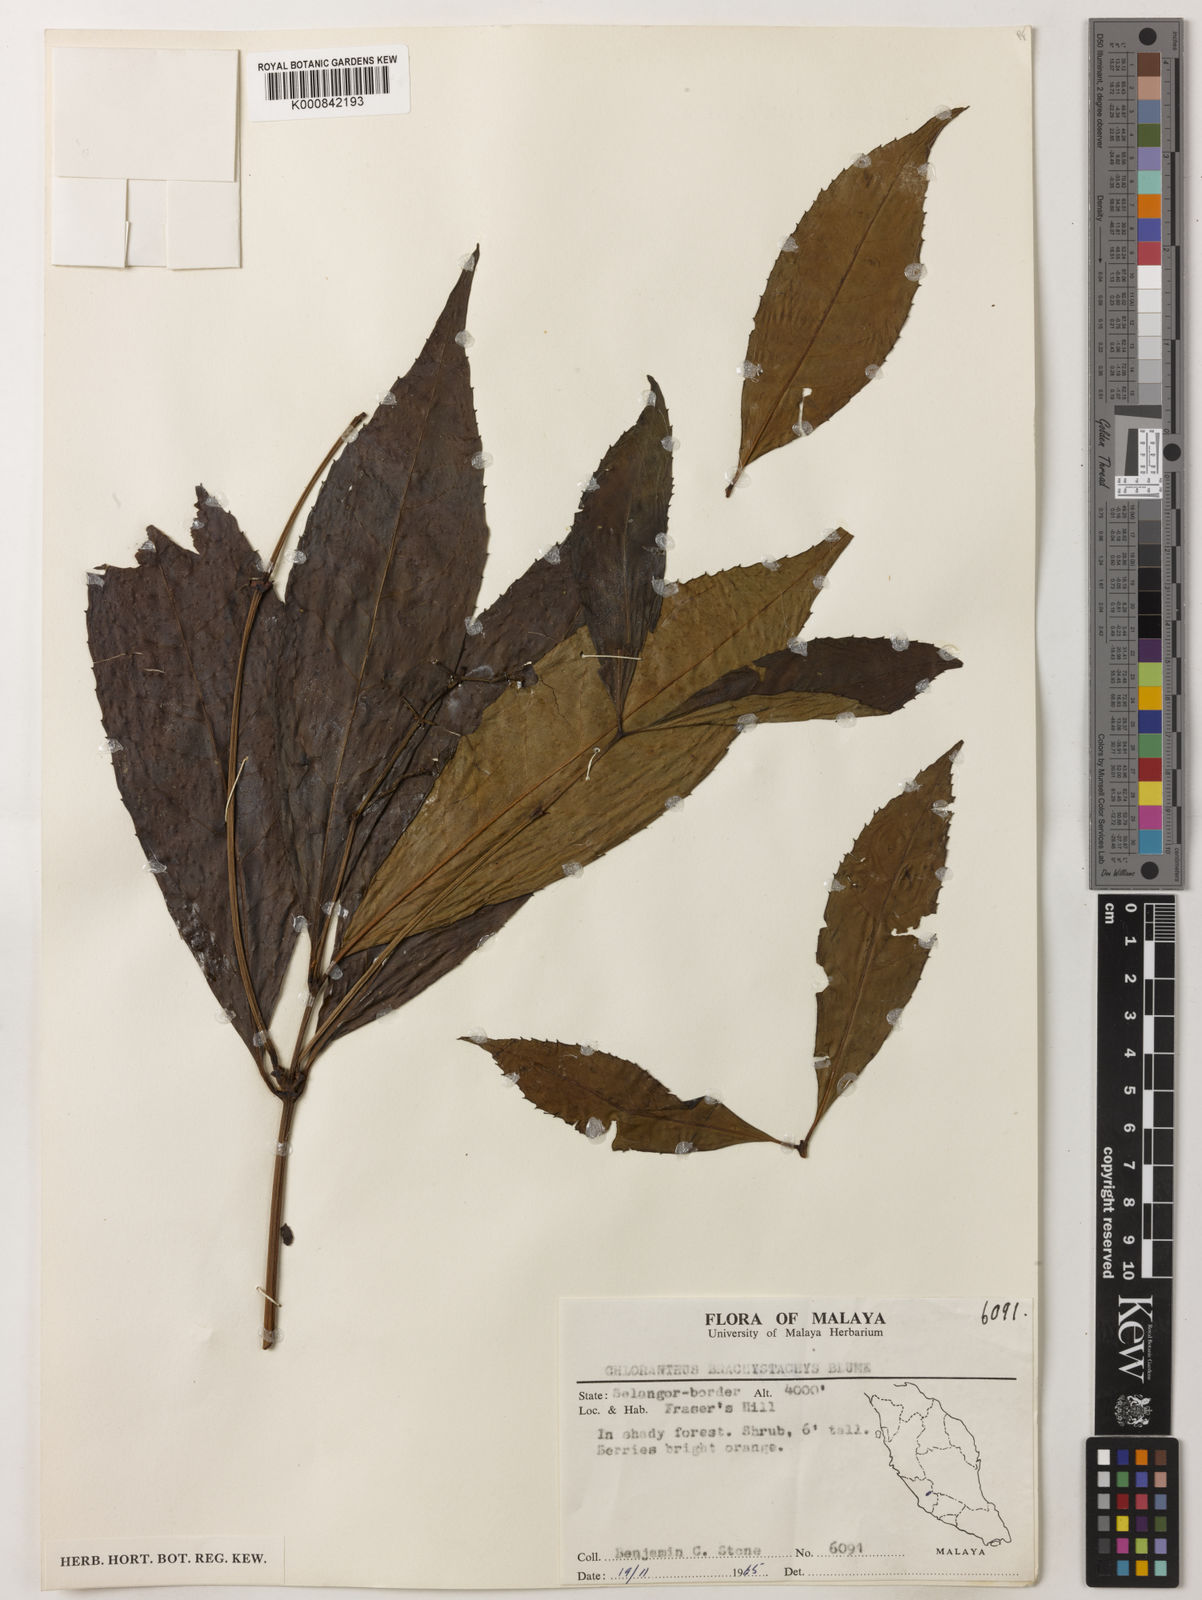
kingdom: Plantae
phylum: Tracheophyta
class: Magnoliopsida
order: Chloranthales
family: Chloranthaceae
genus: Sarcandra
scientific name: Sarcandra glabra
